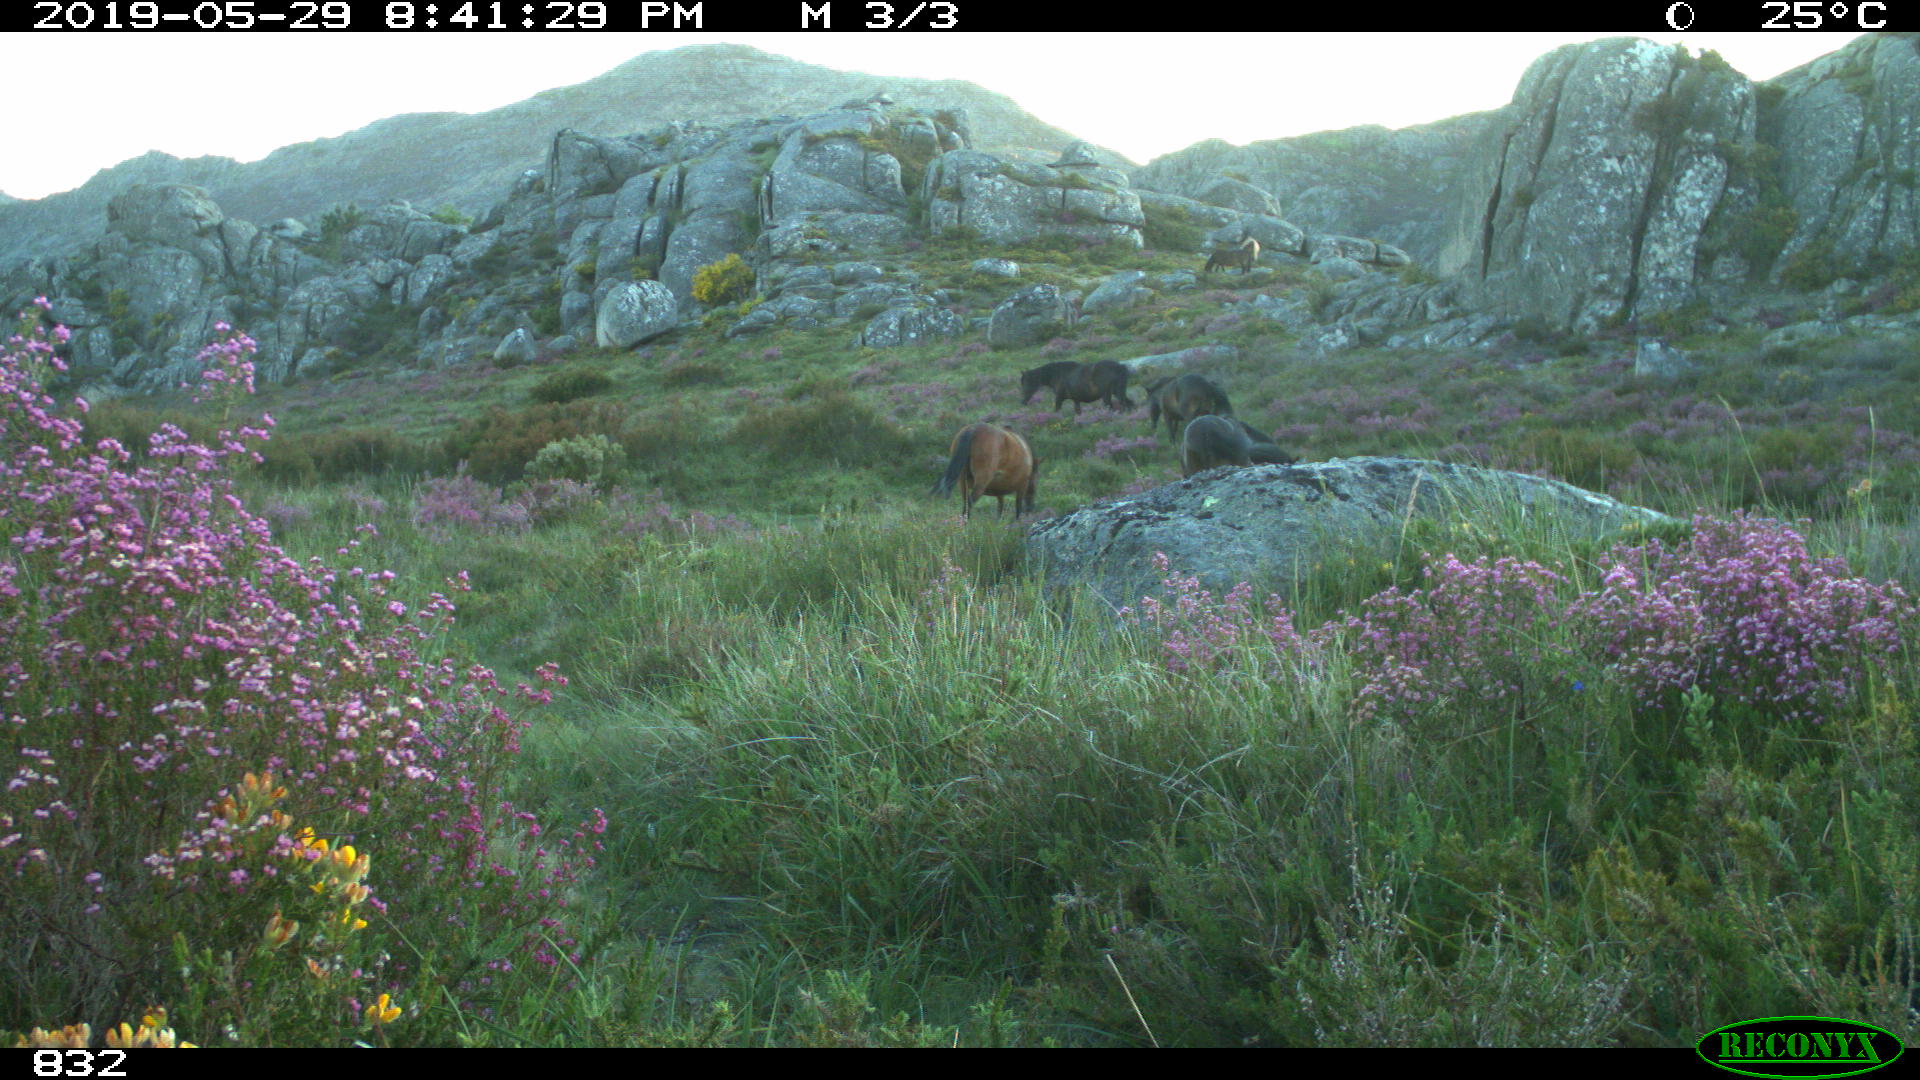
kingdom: Animalia
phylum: Chordata
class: Mammalia
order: Perissodactyla
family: Equidae
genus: Equus
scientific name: Equus caballus
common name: Horse
